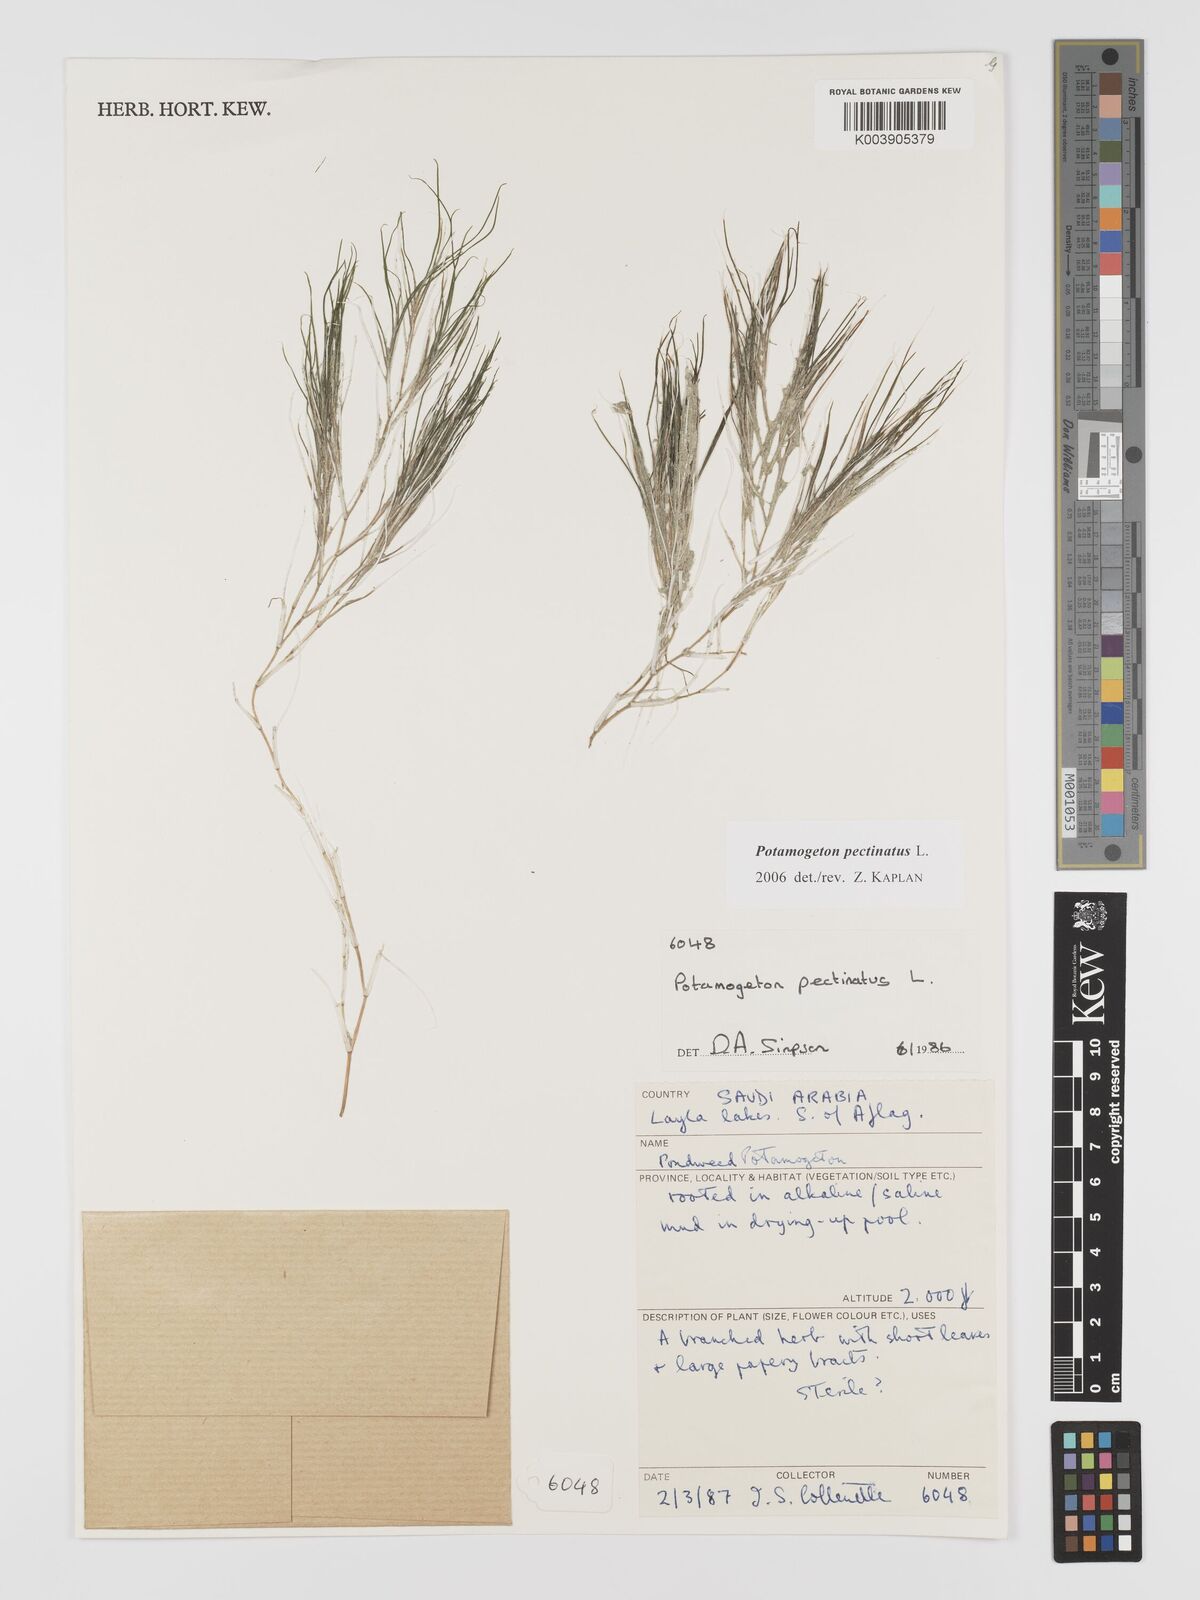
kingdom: Plantae
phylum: Tracheophyta
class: Liliopsida
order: Alismatales
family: Potamogetonaceae
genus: Stuckenia
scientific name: Stuckenia pectinata
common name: Sago pondweed
